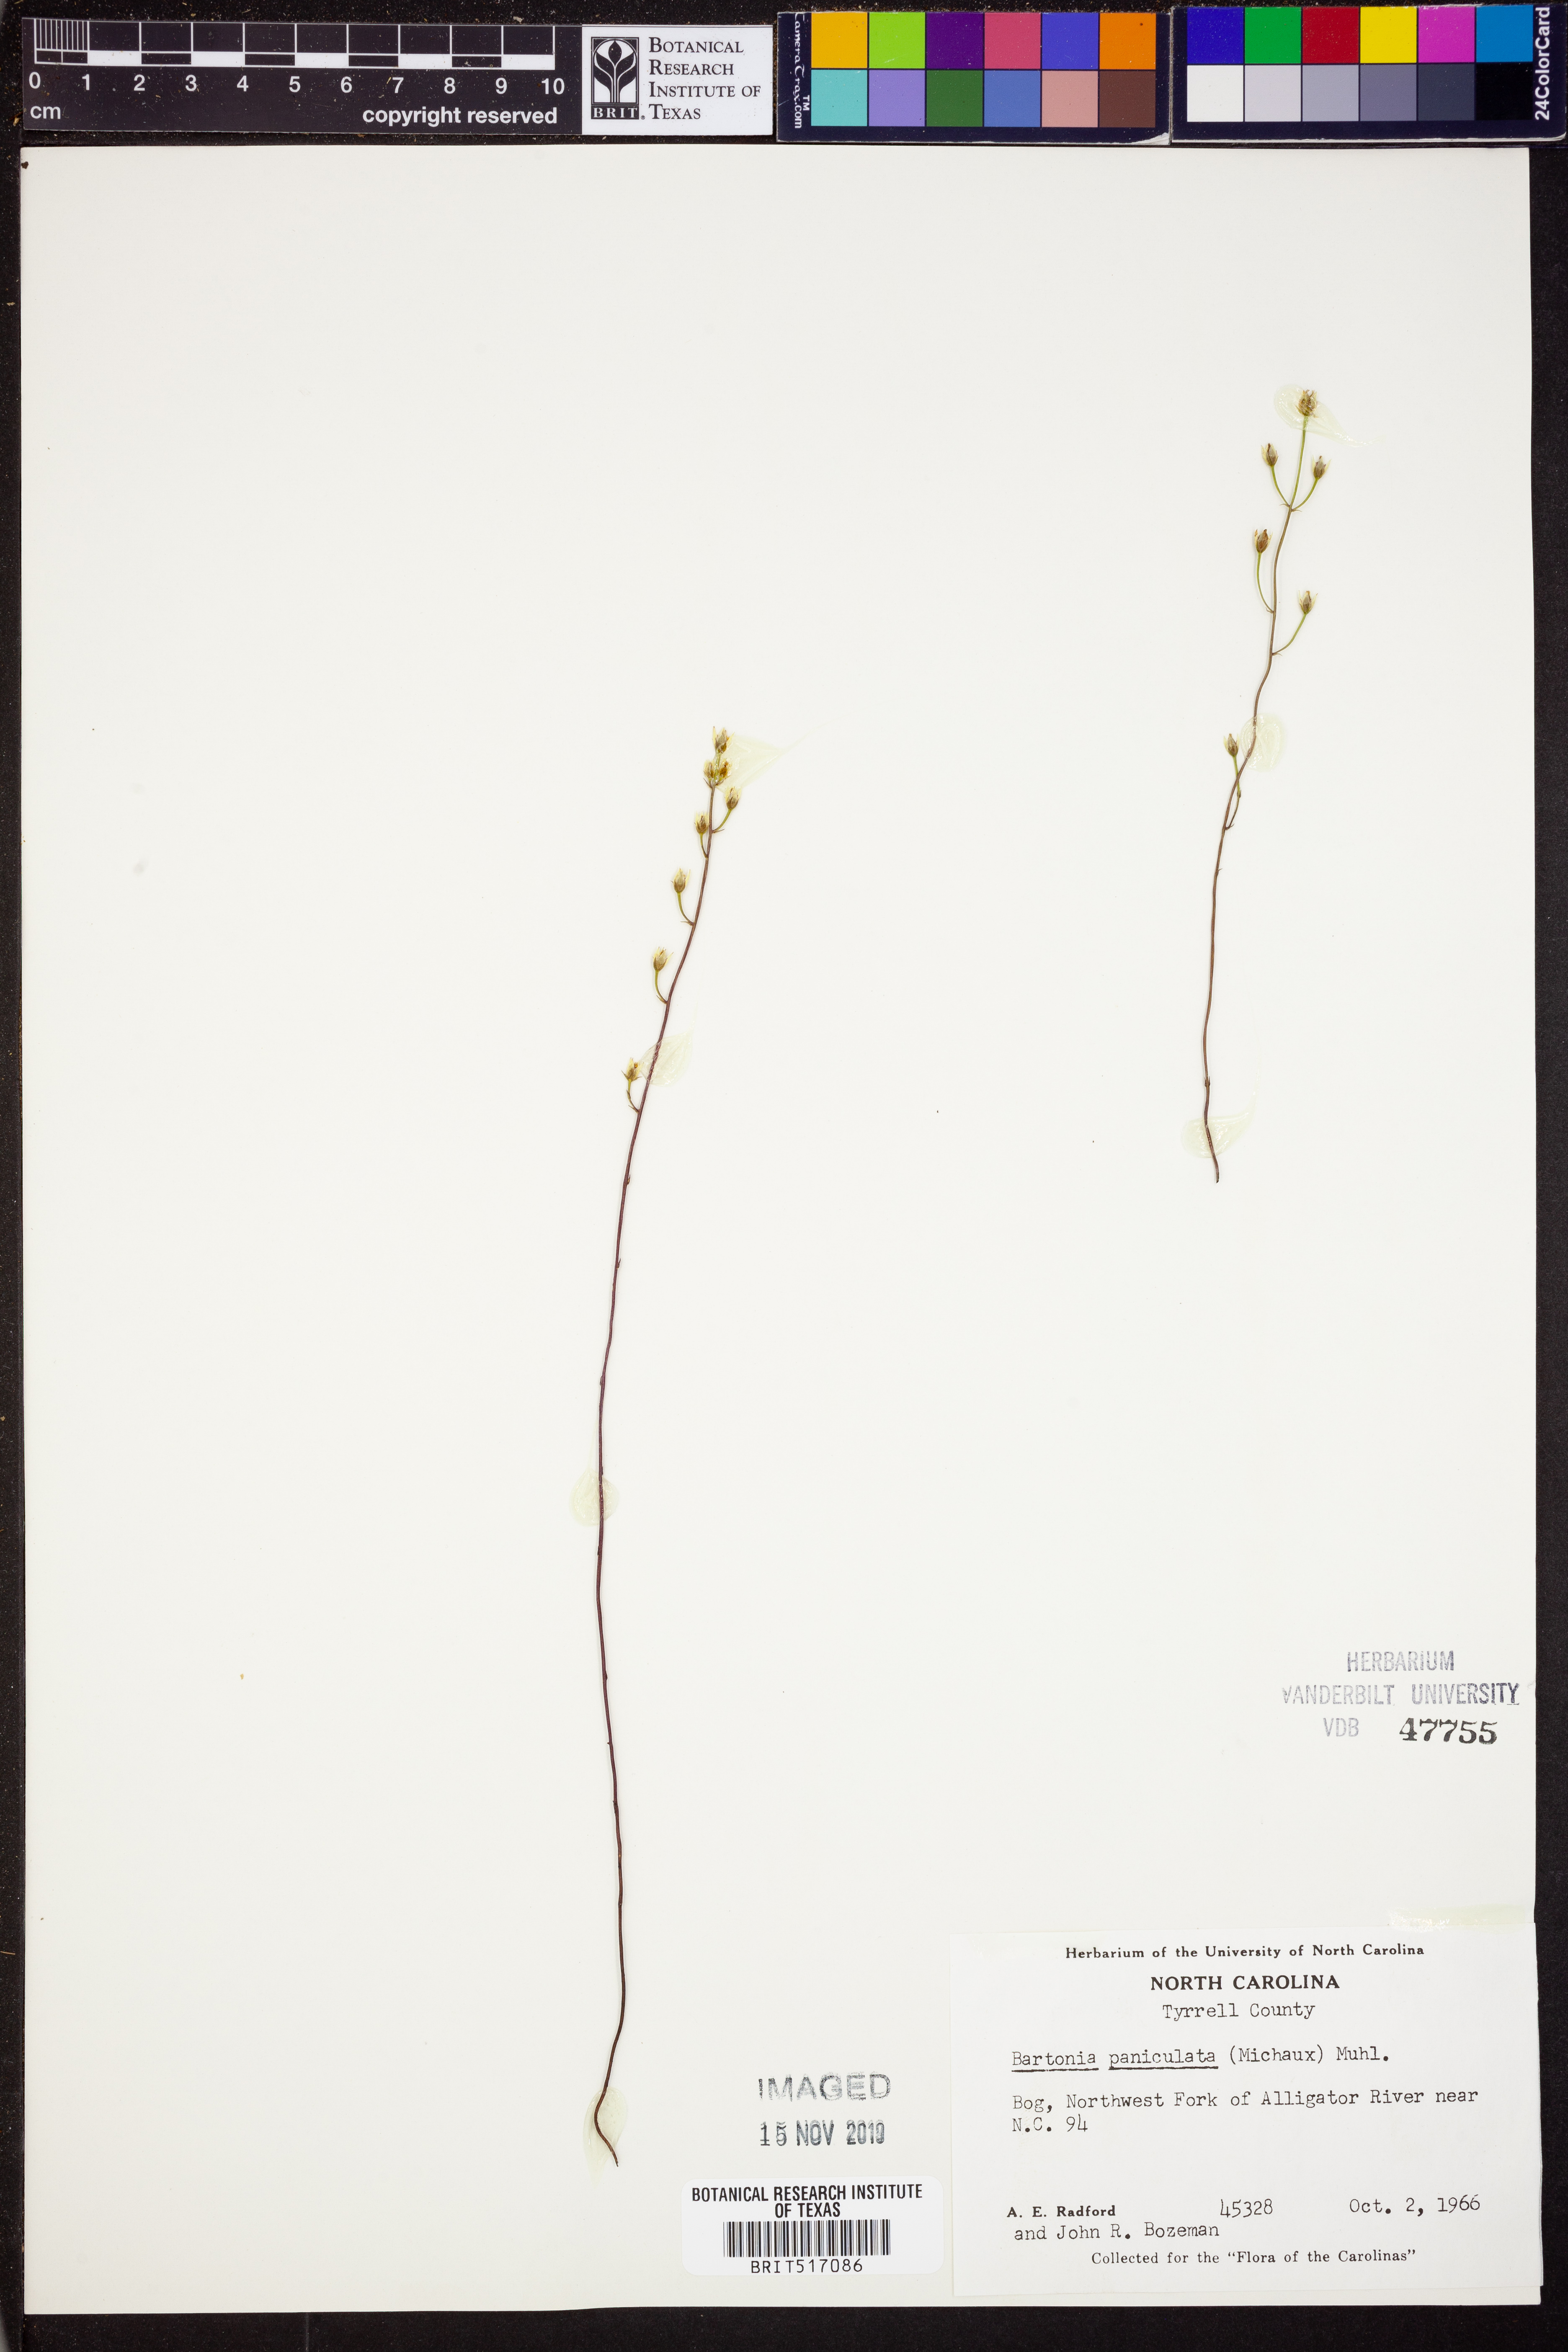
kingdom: Plantae
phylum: Tracheophyta
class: Magnoliopsida
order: Gentianales
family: Gentianaceae
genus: Bartonia
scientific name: Bartonia paniculata
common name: Branched bartonia
